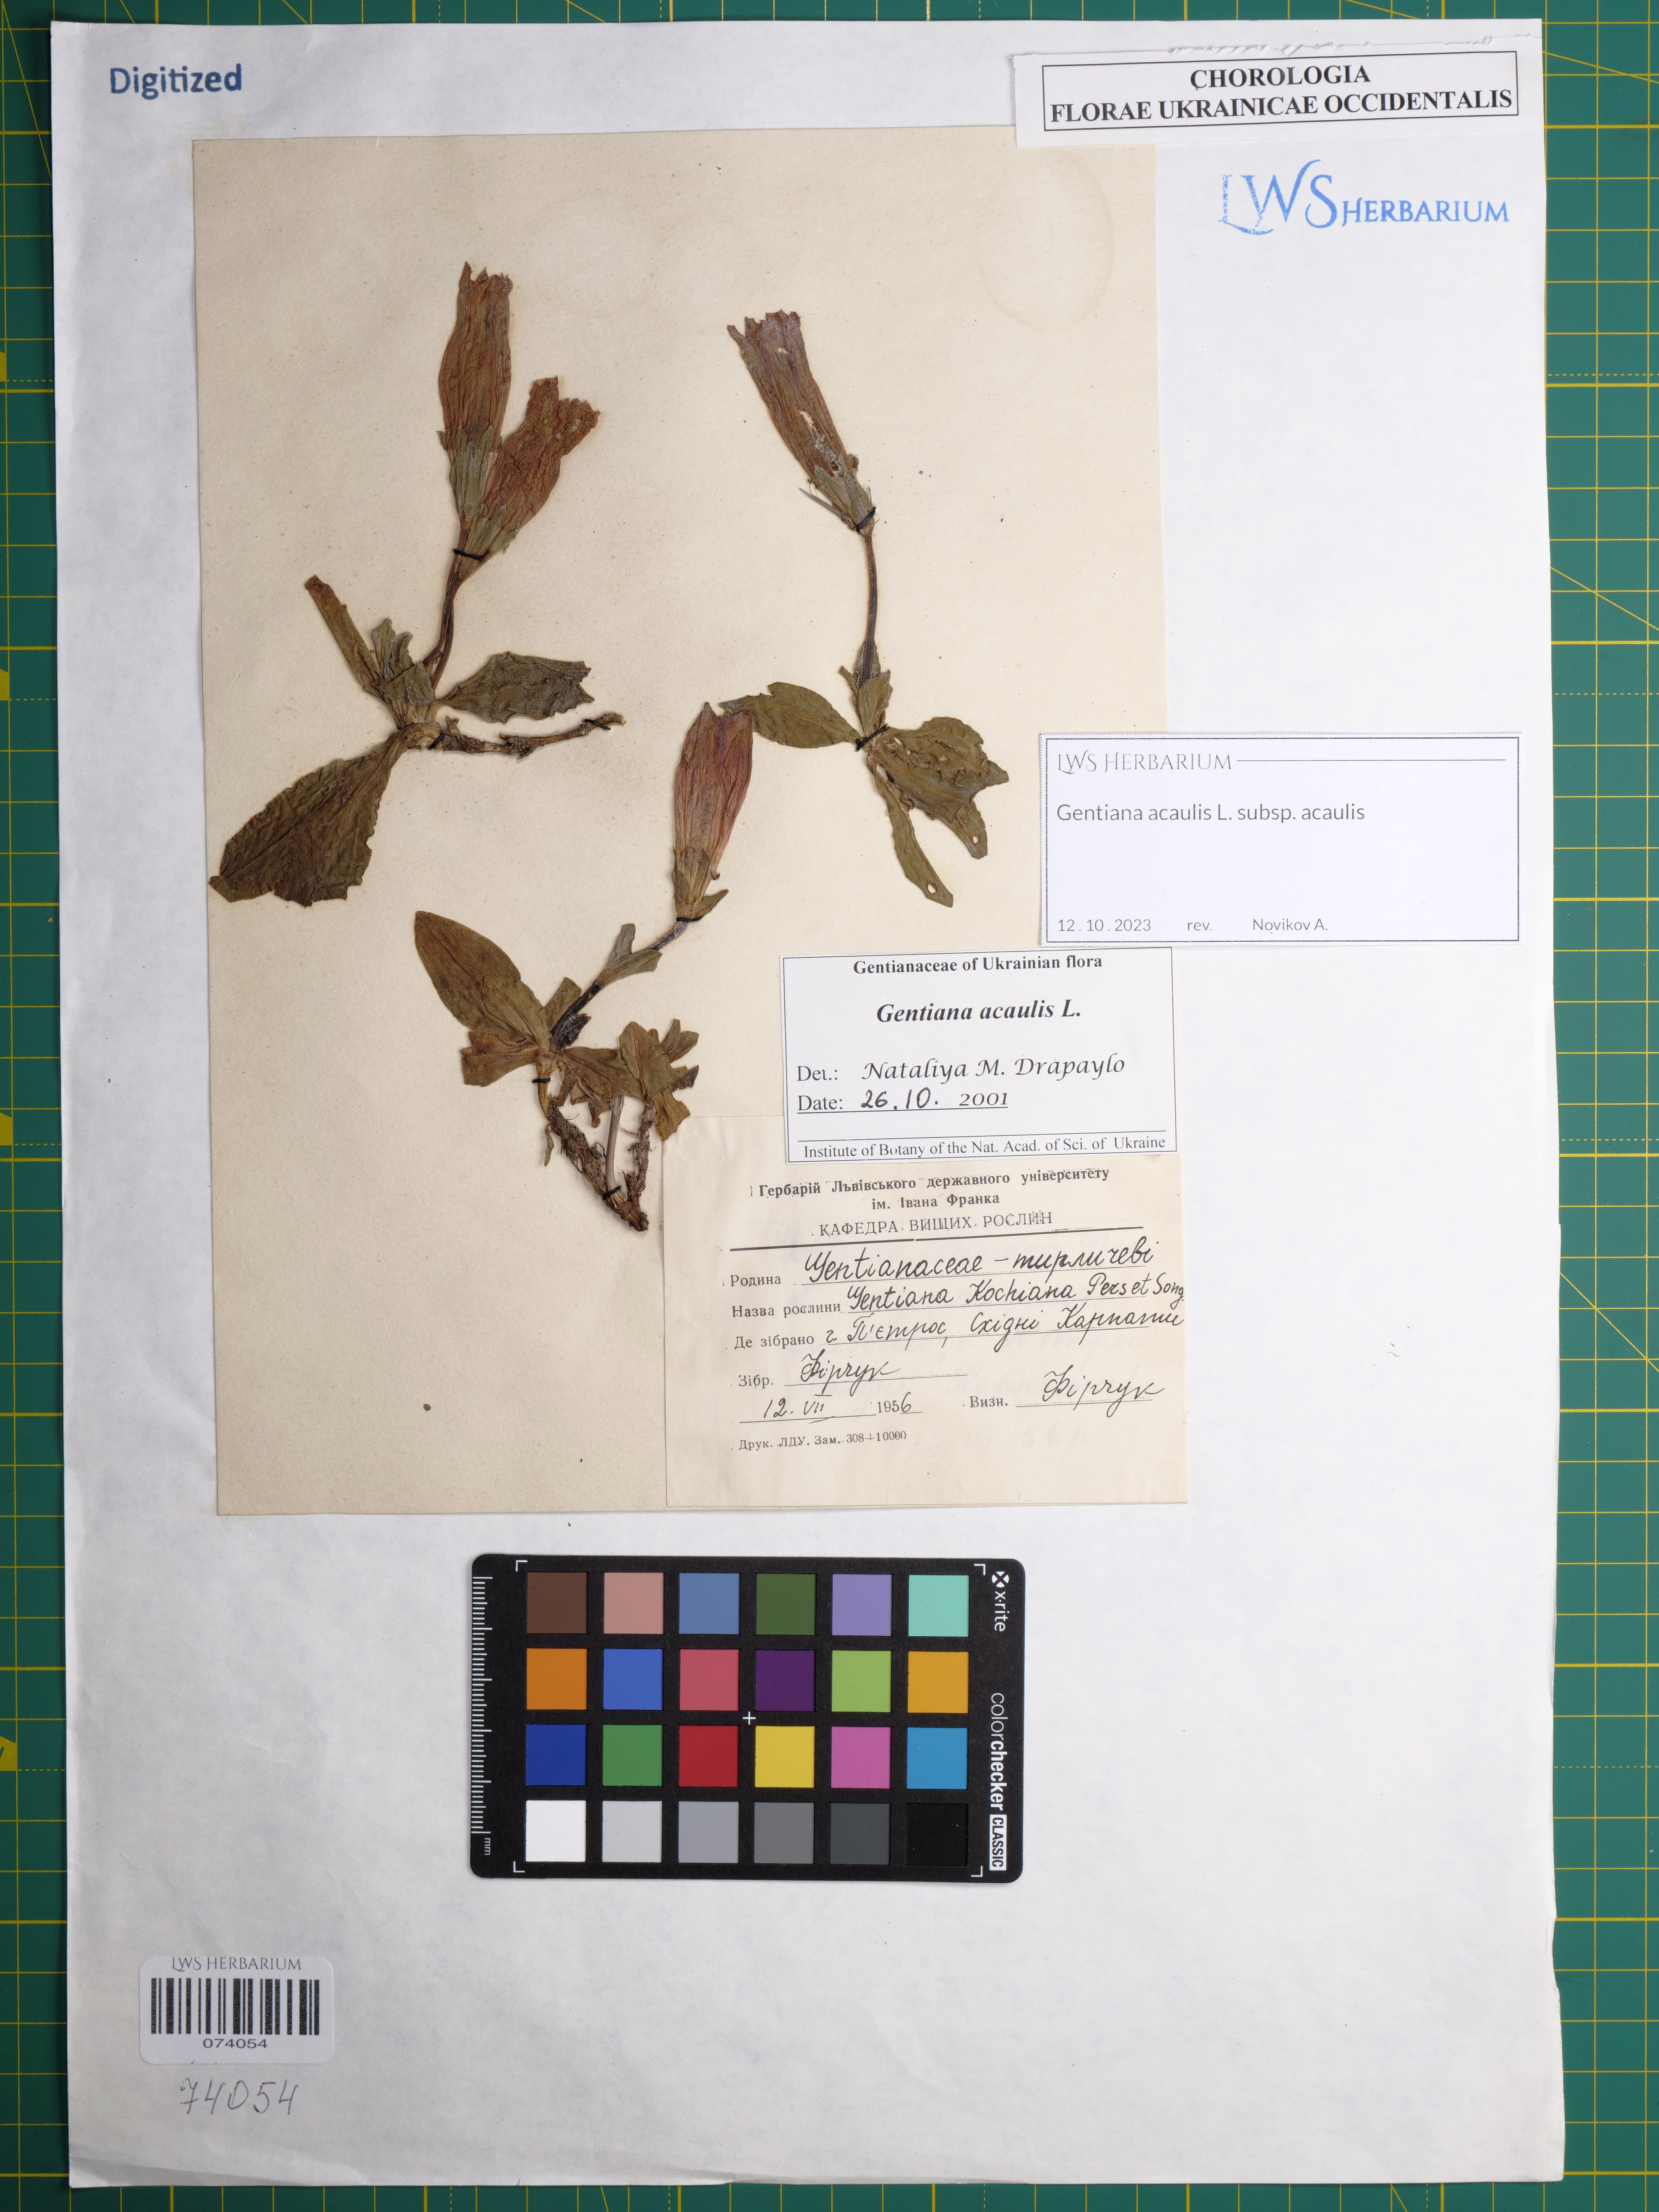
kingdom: Plantae
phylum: Tracheophyta
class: Magnoliopsida
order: Gentianales
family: Gentianaceae
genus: Gentiana
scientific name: Gentiana acaulis
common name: Trumpet gentian
